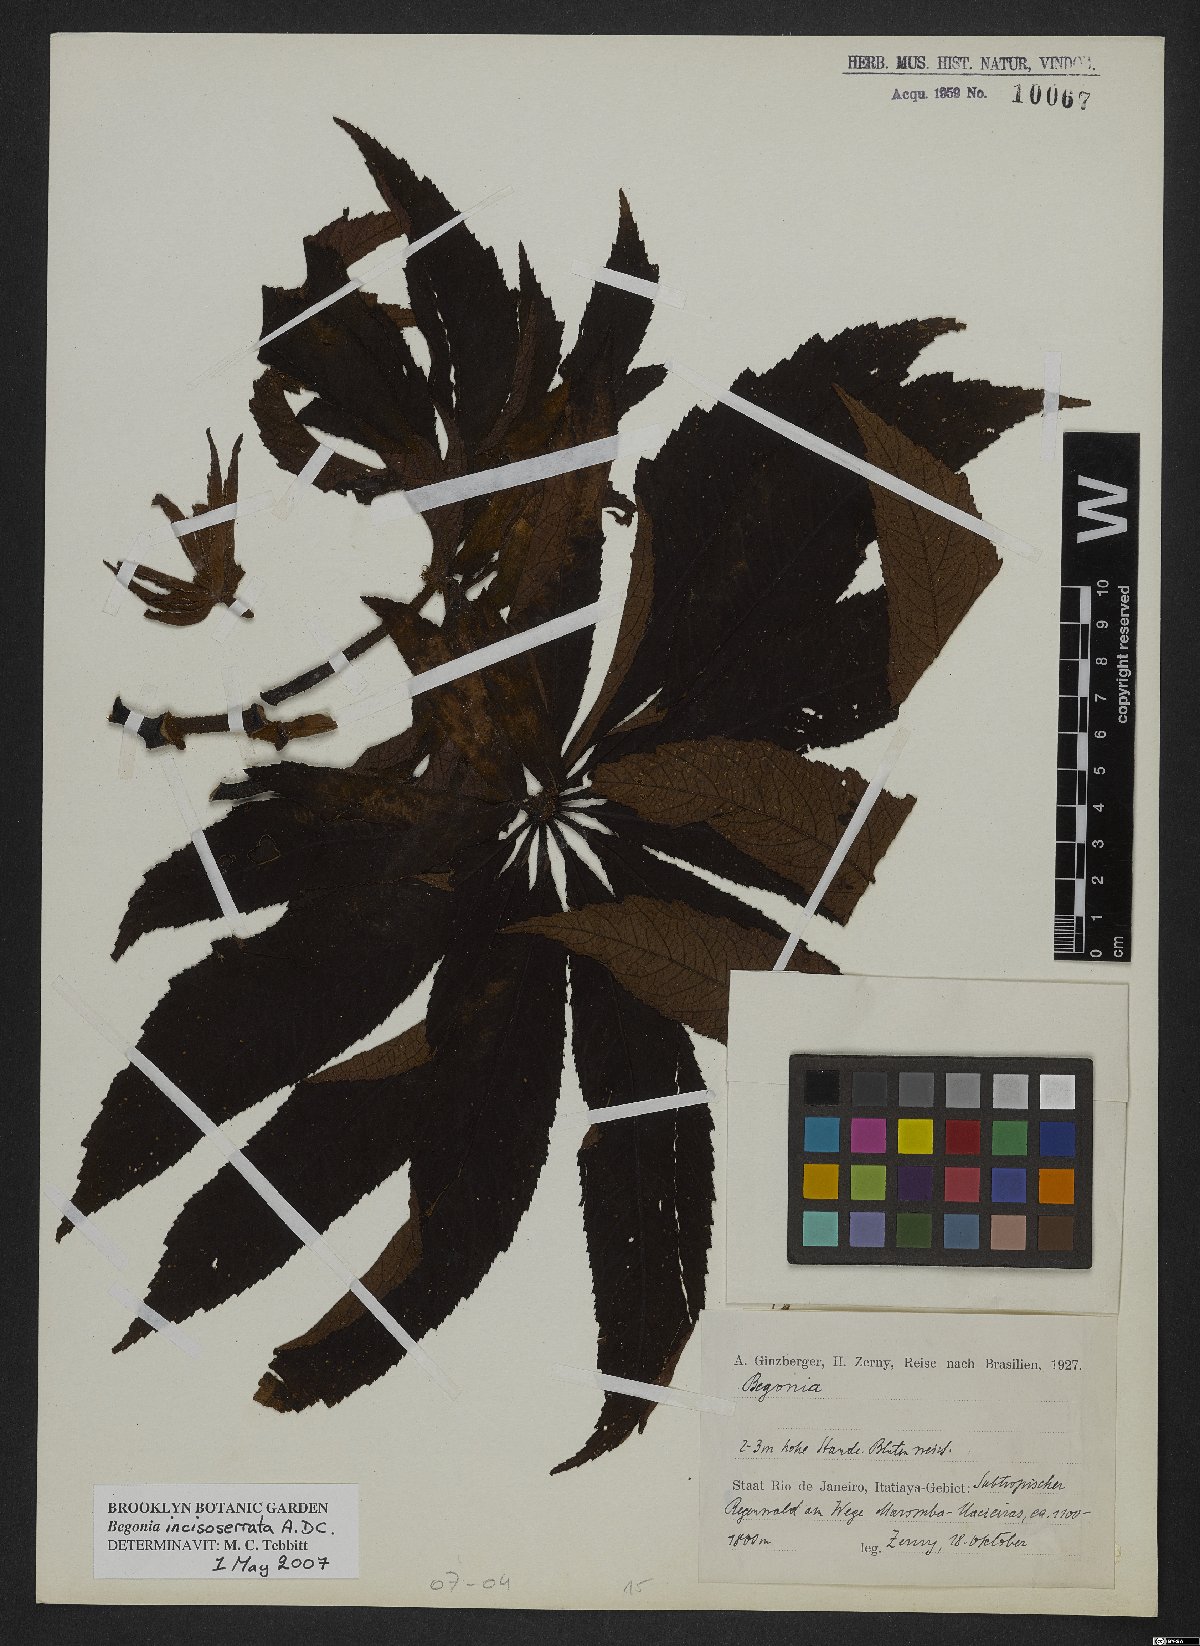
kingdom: Plantae
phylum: Tracheophyta
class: Magnoliopsida
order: Cucurbitales
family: Begoniaceae
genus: Begonia
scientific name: Begonia incisoserrata
